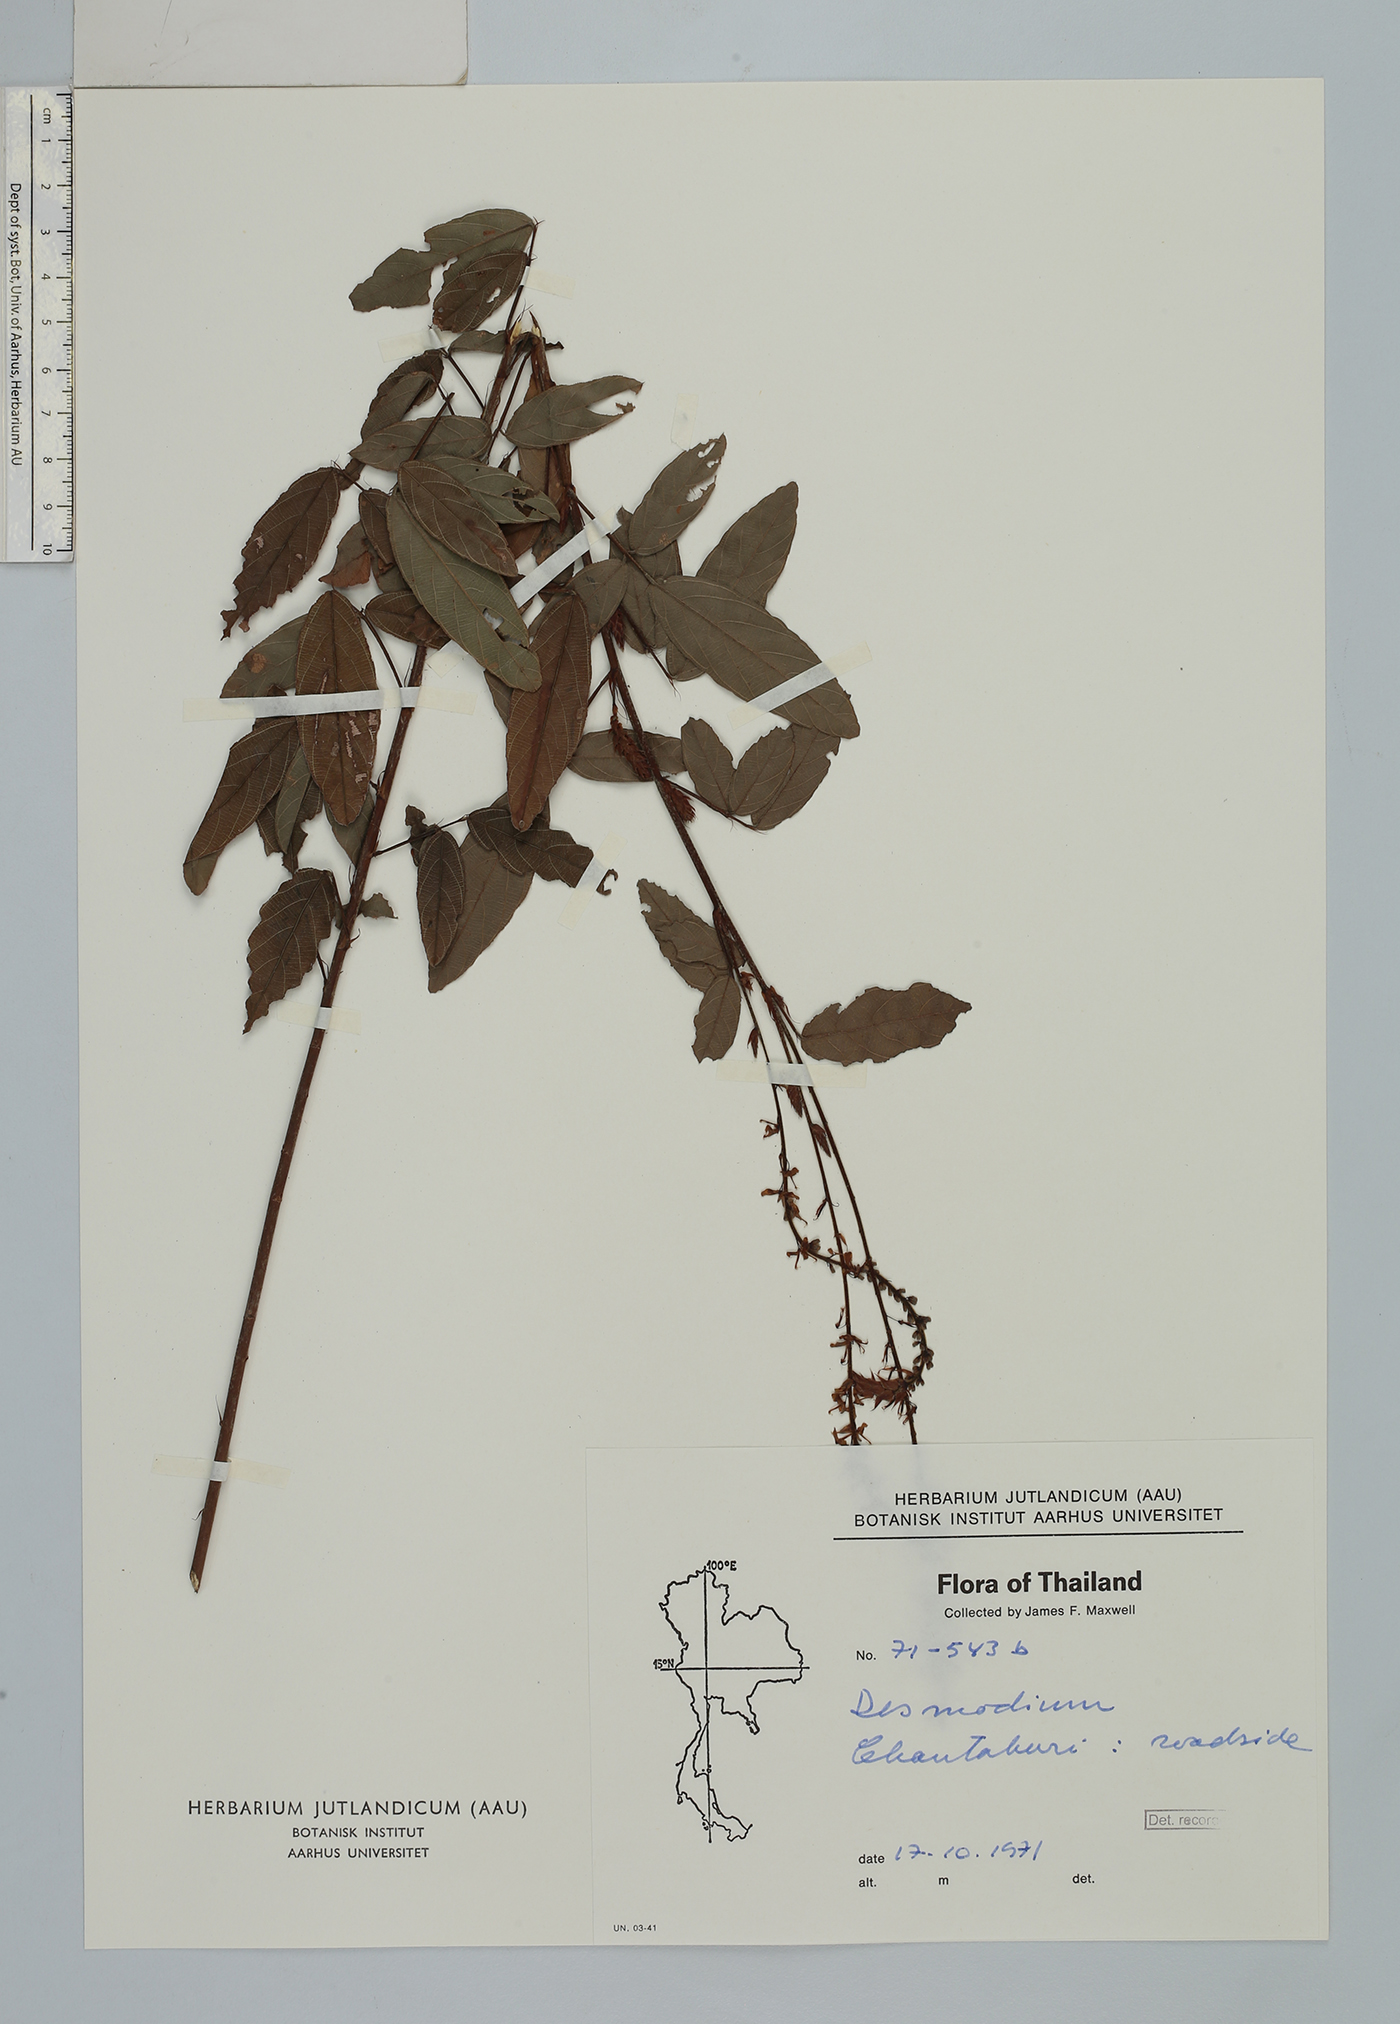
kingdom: Plantae
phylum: Tracheophyta
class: Magnoliopsida
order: Fabales
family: Fabaceae
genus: Grona
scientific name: Grona reticulata
